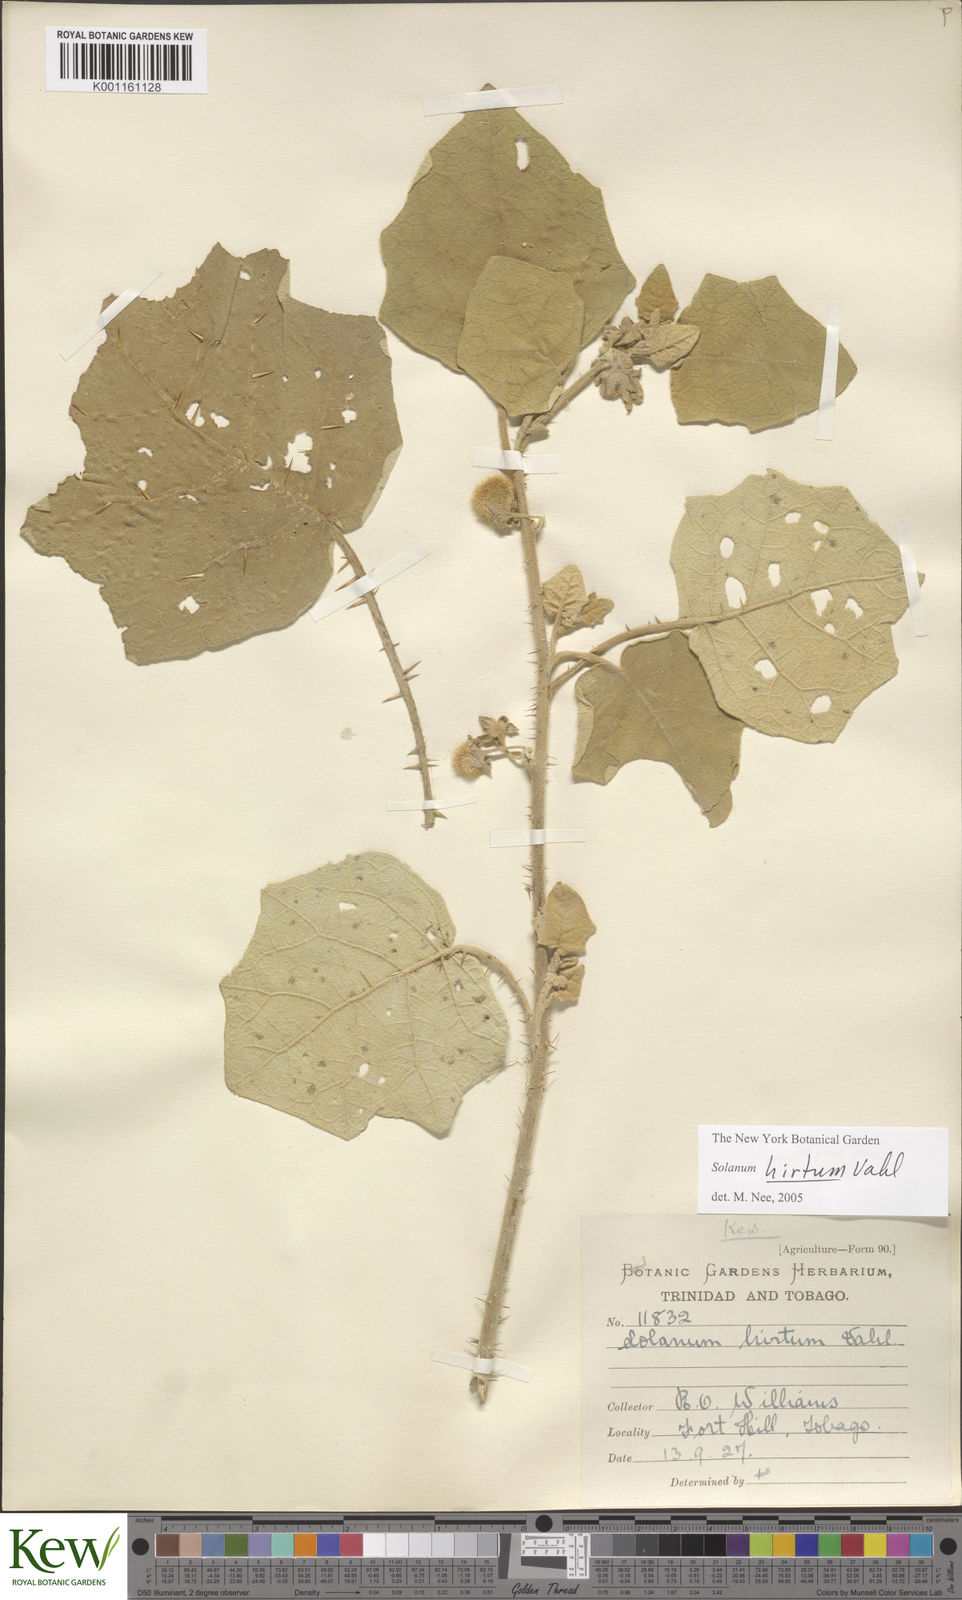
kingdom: Plantae
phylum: Tracheophyta
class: Magnoliopsida
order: Solanales
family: Solanaceae
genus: Solanum
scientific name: Solanum hirtum
